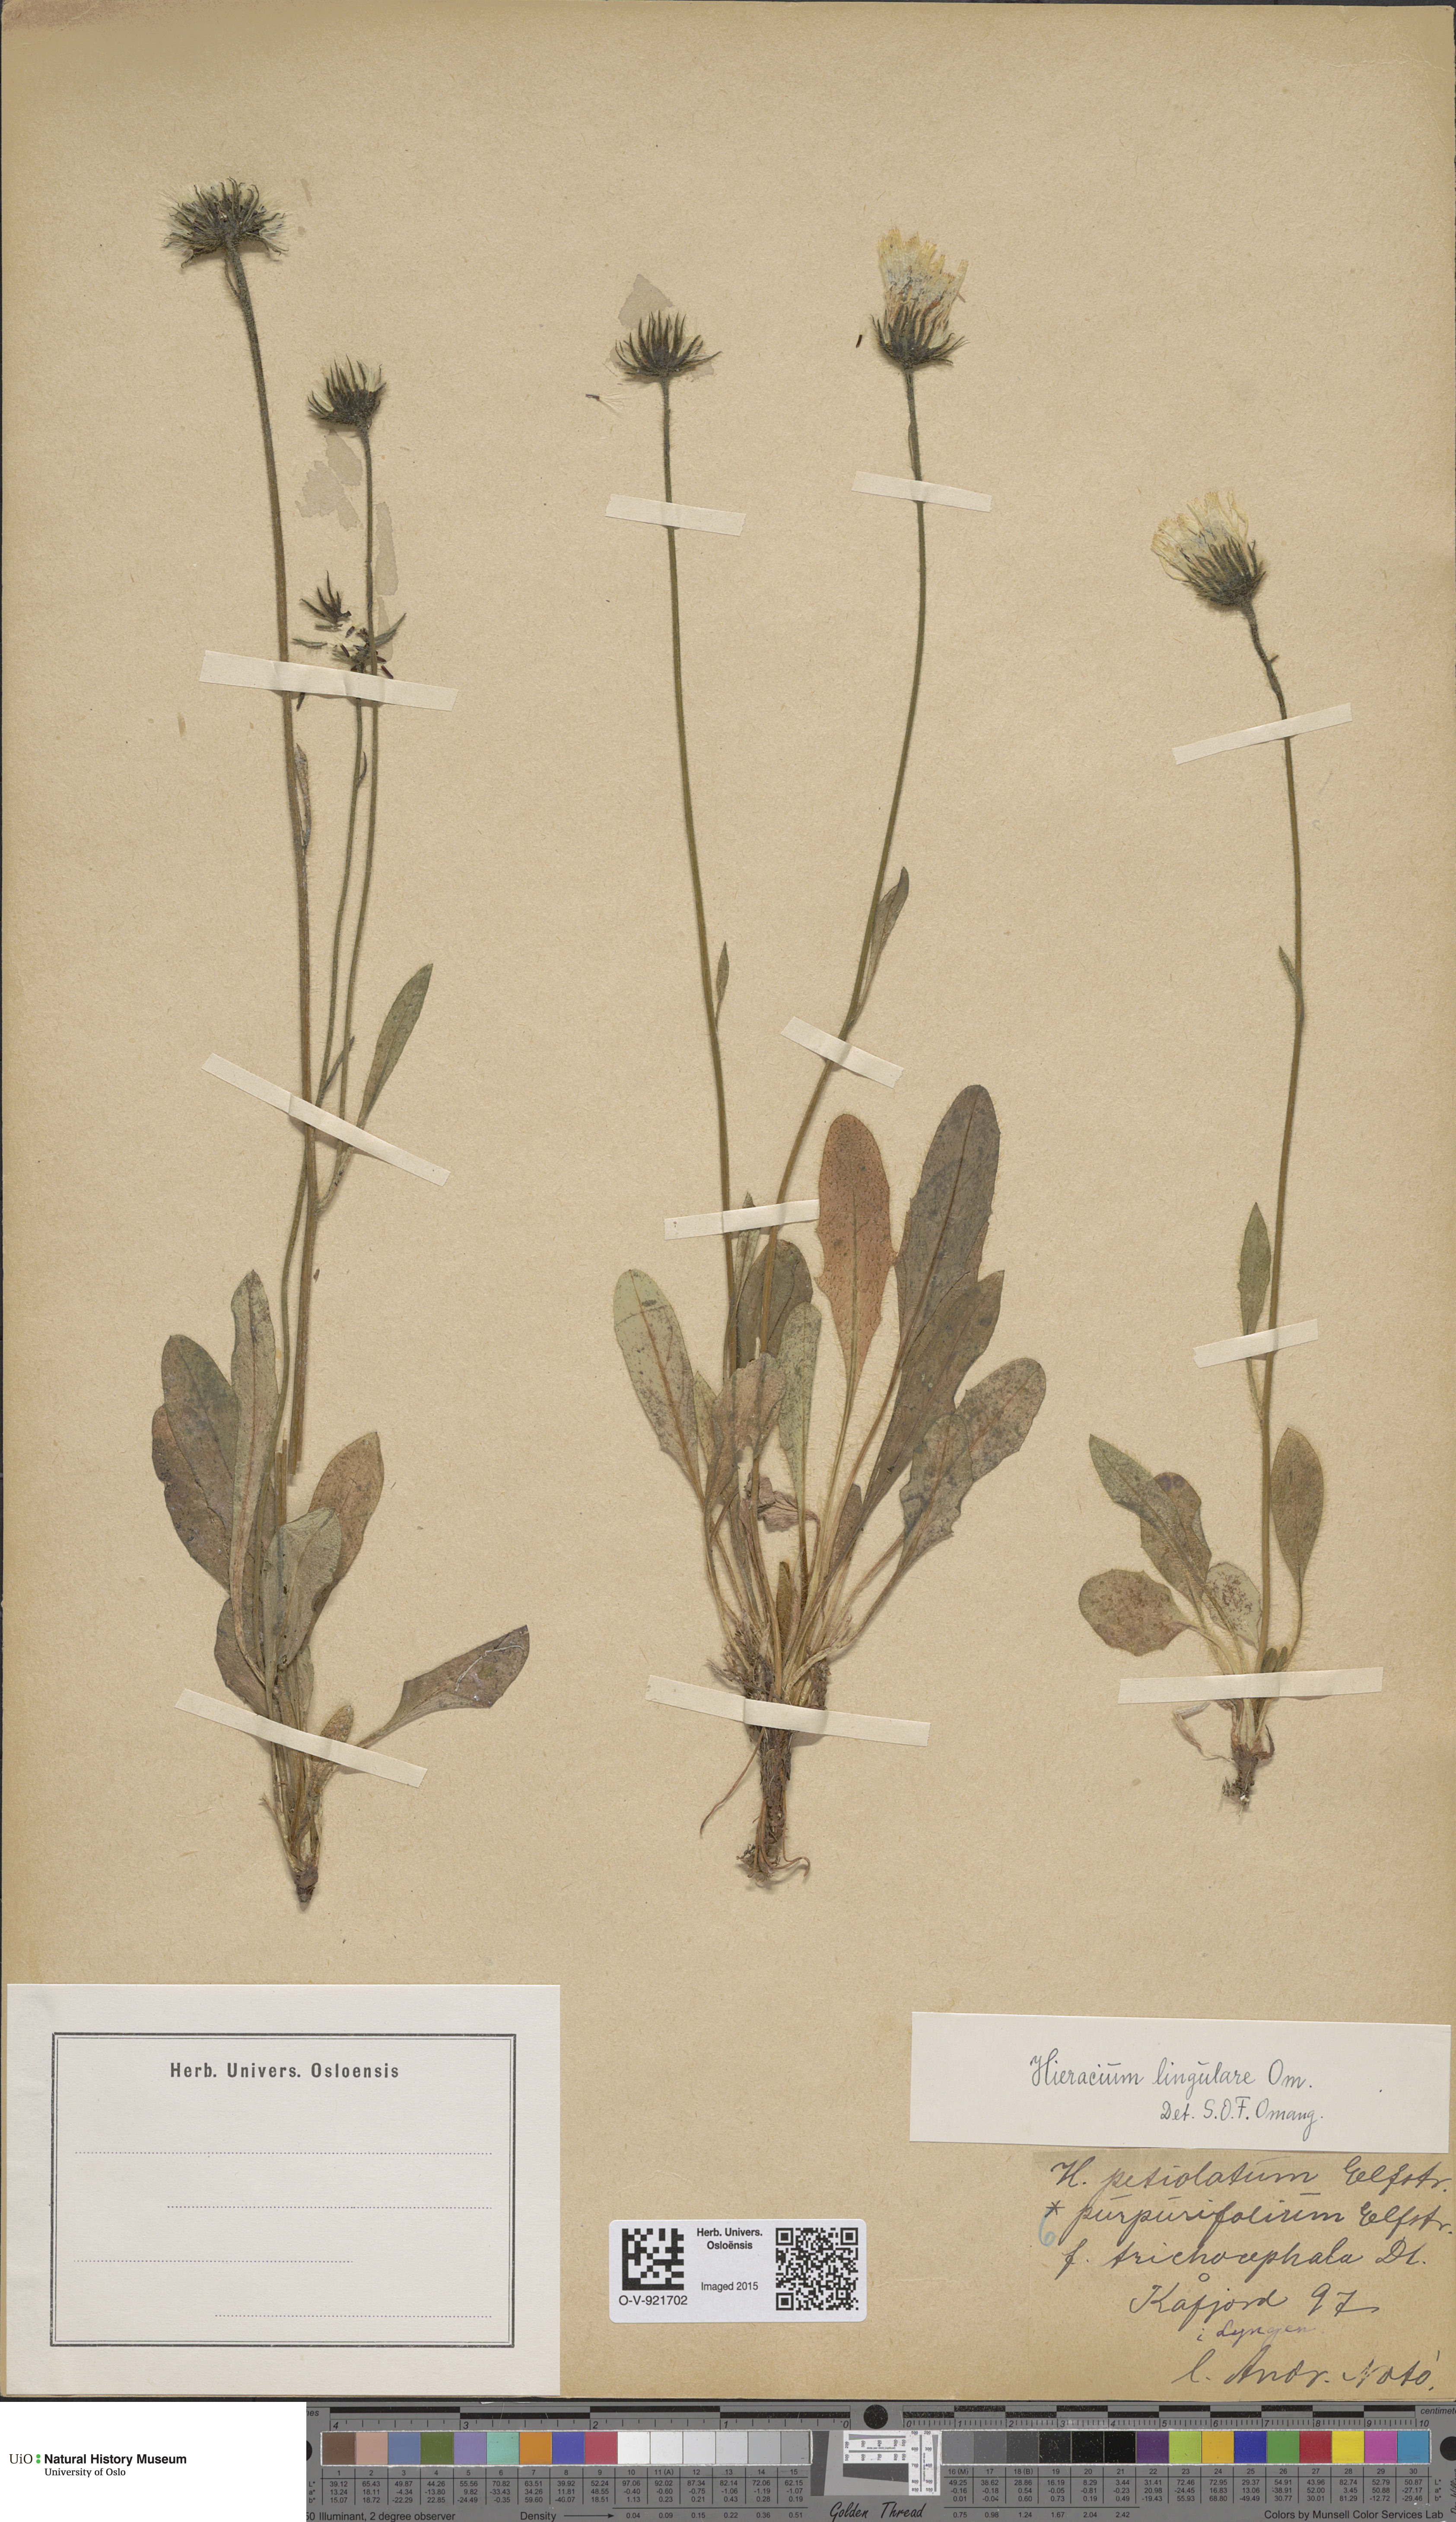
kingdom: Plantae
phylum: Tracheophyta
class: Magnoliopsida
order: Asterales
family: Asteraceae
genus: Hieracium
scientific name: Hieracium
